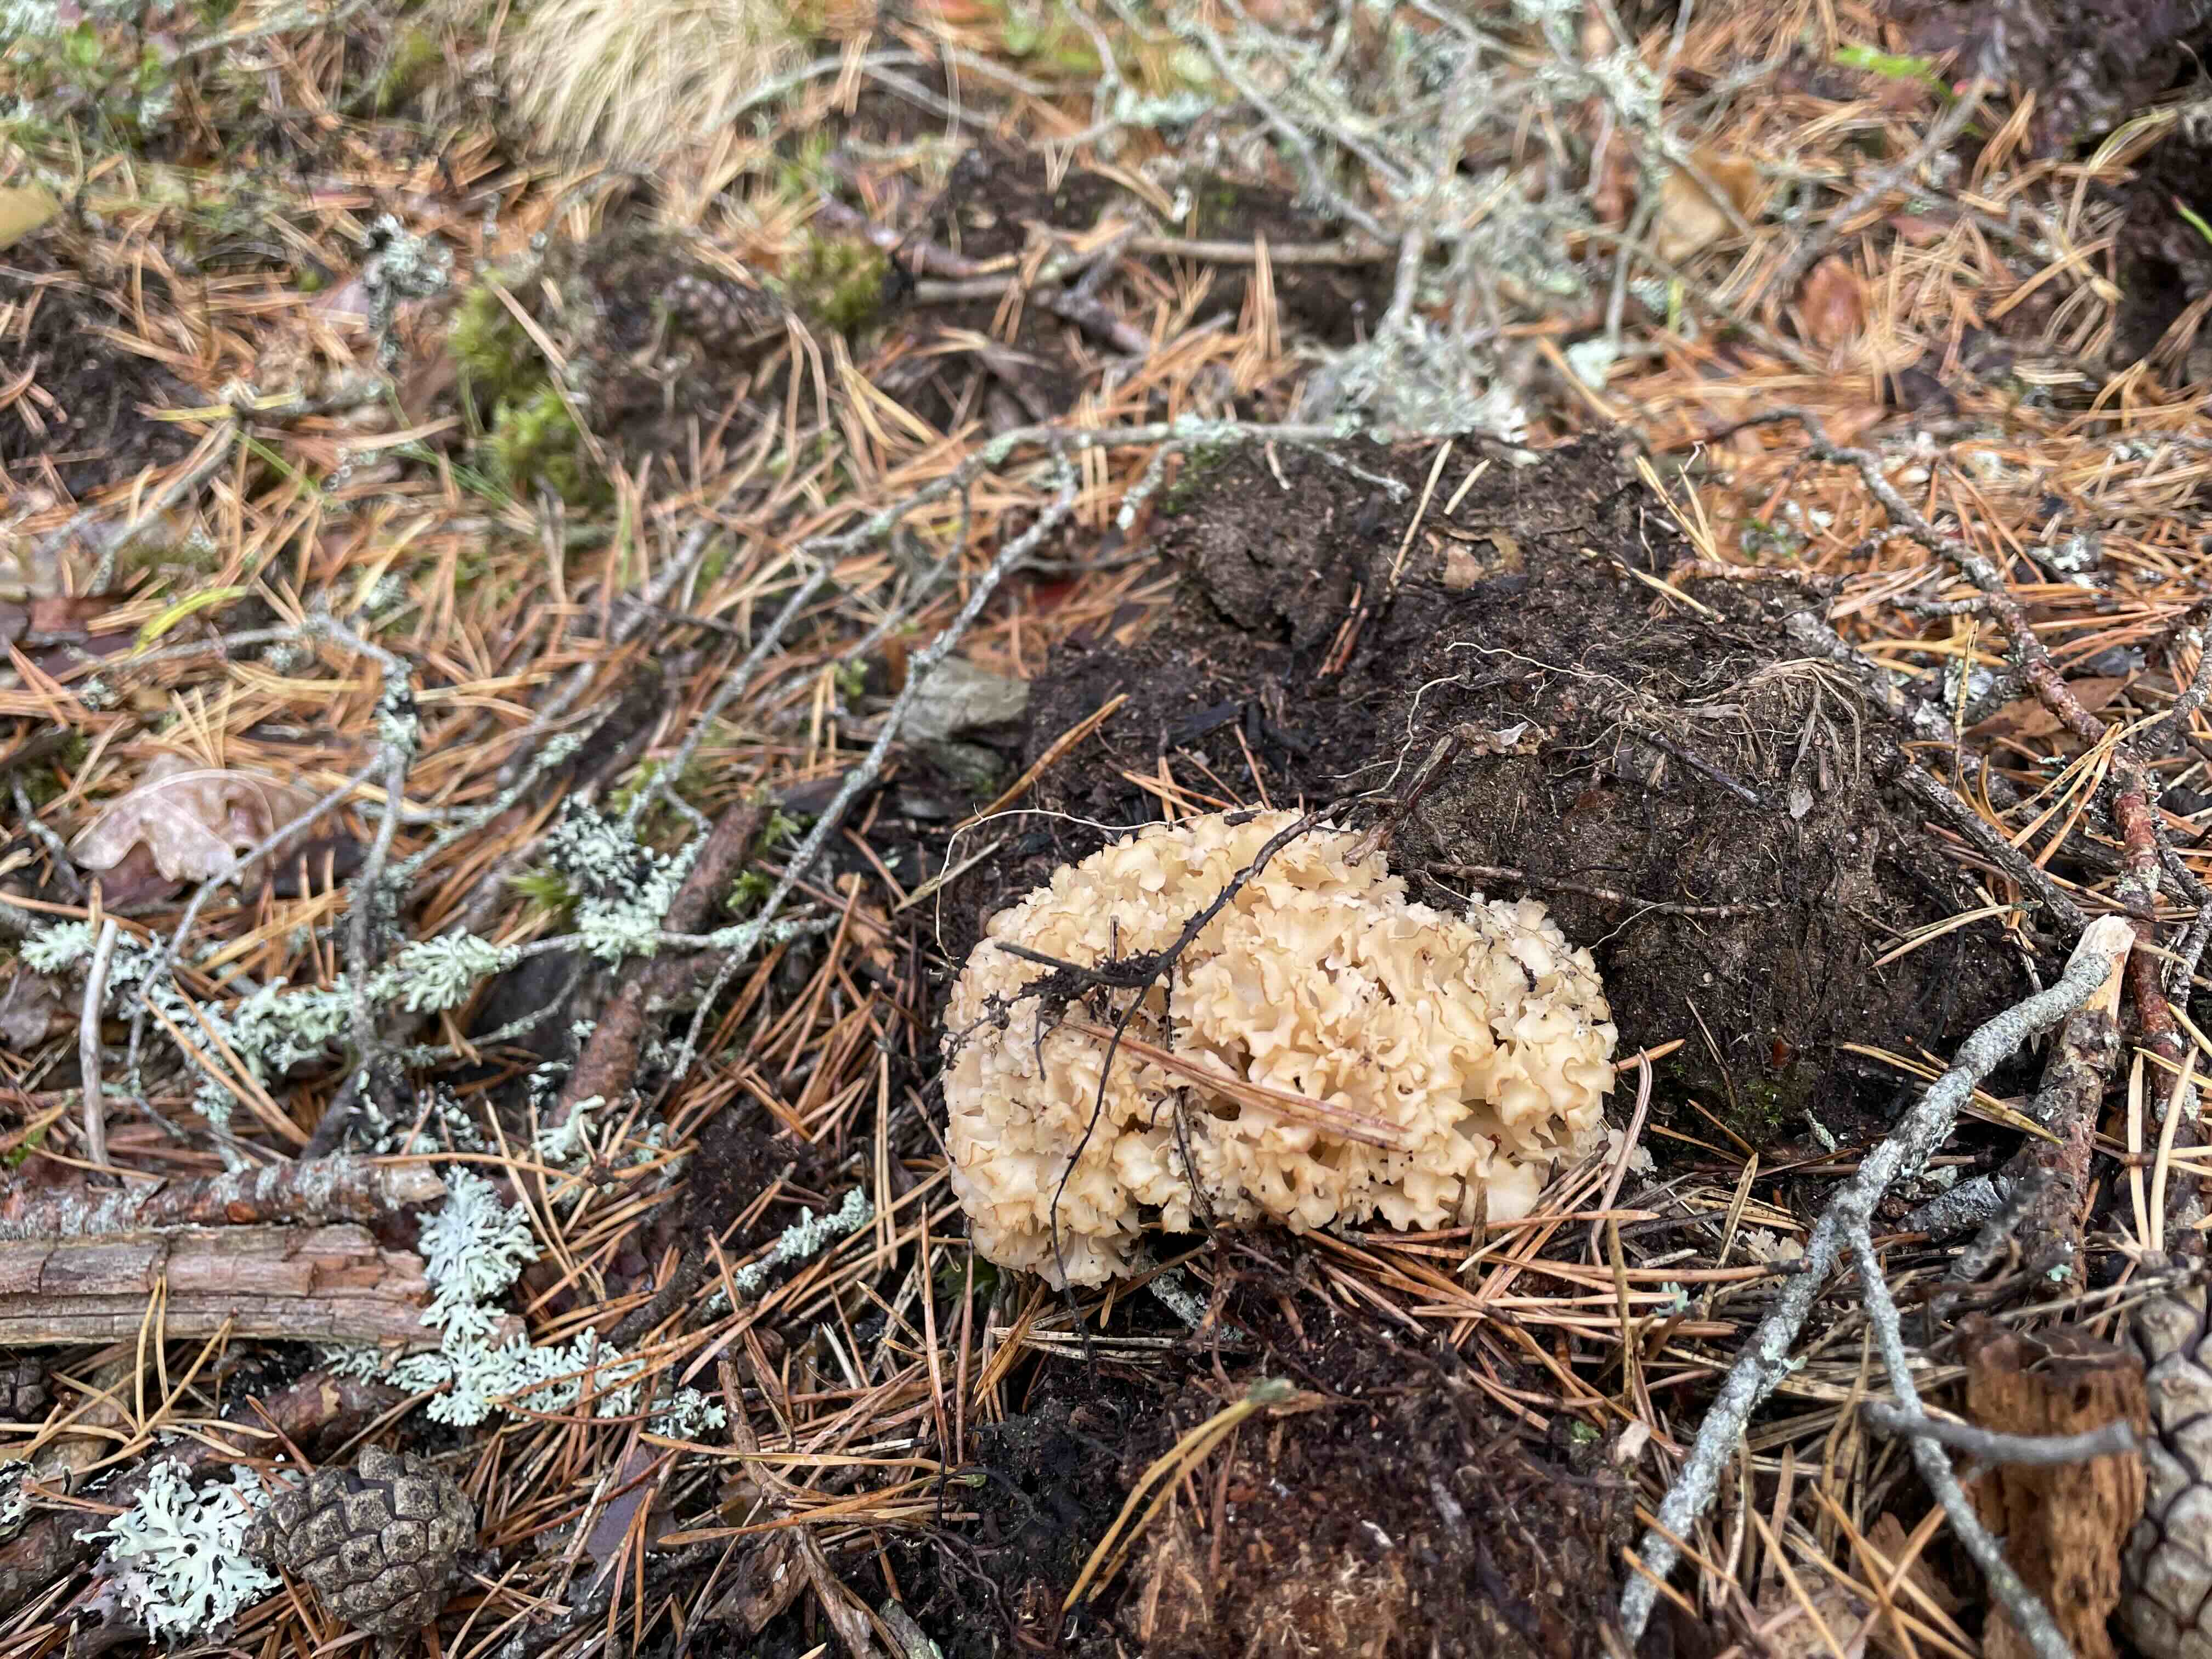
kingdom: Fungi
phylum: Basidiomycota
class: Agaricomycetes
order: Polyporales
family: Sparassidaceae
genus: Sparassis
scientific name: Sparassis crispa
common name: kruset blomkålssvamp
